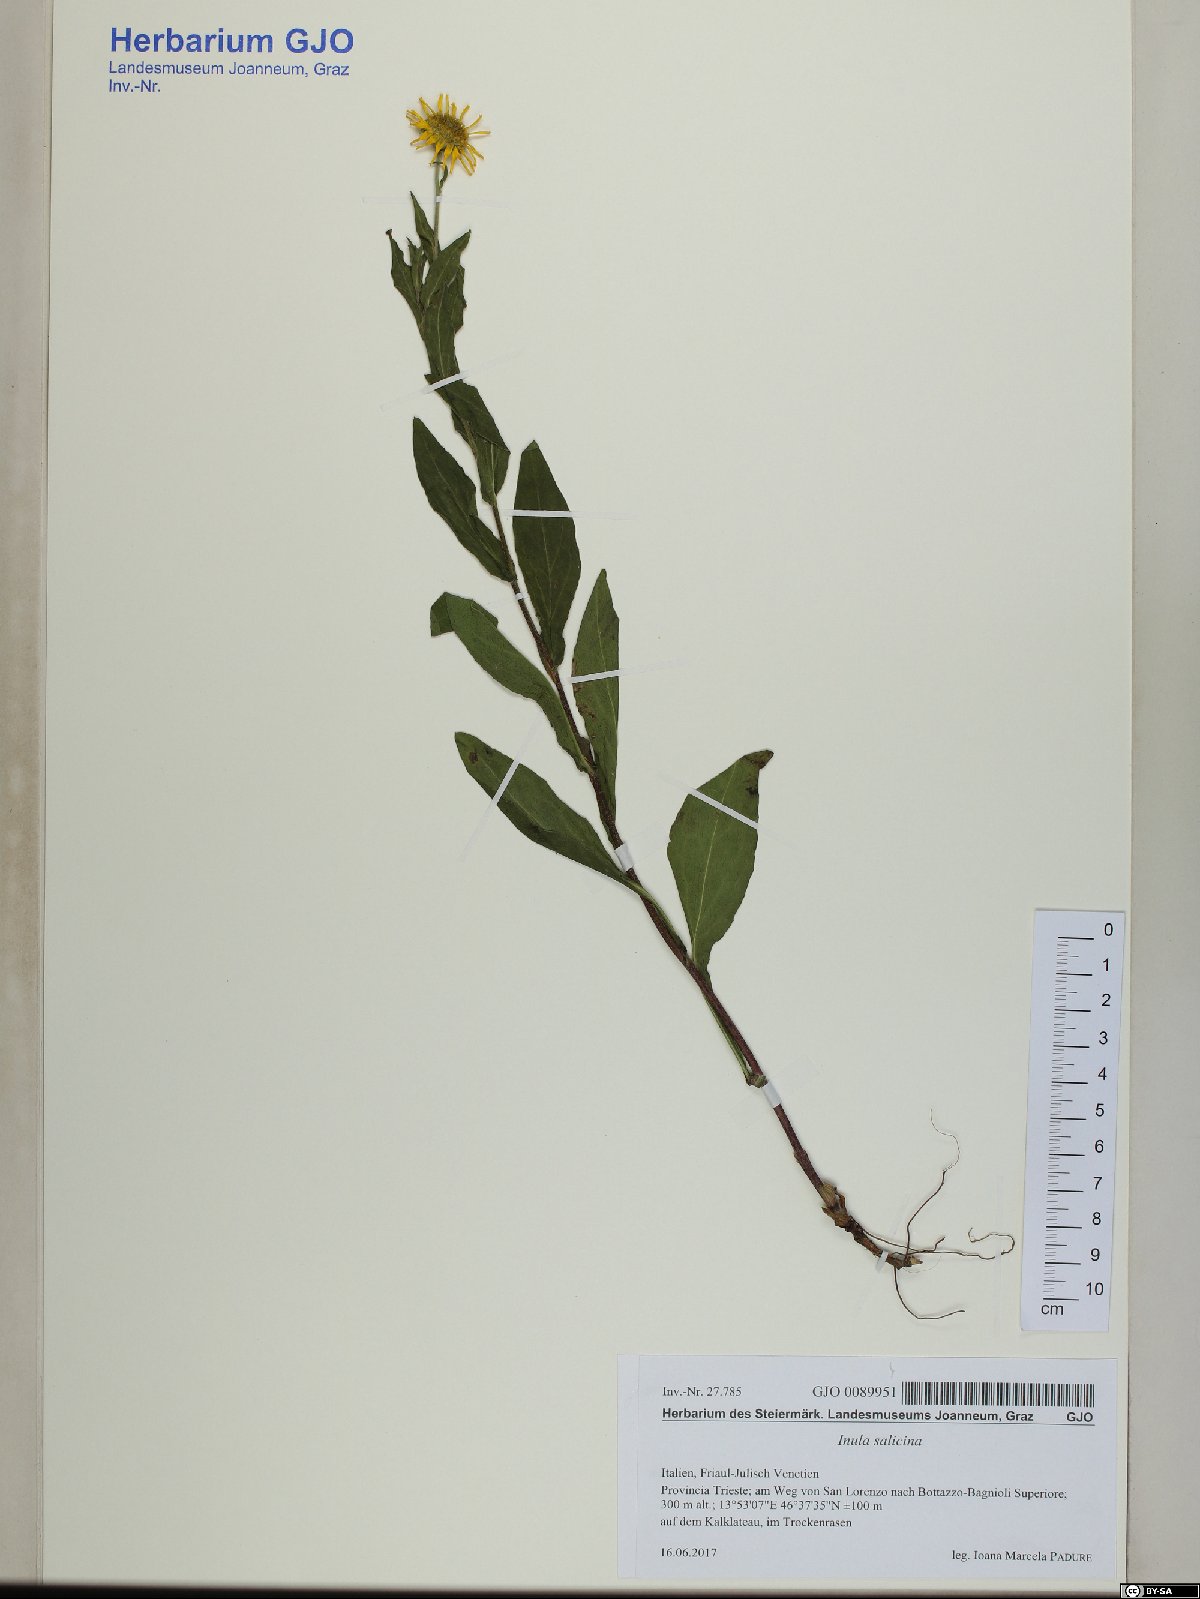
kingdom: Plantae
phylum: Tracheophyta
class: Magnoliopsida
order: Asterales
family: Asteraceae
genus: Pentanema
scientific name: Pentanema doellianum
